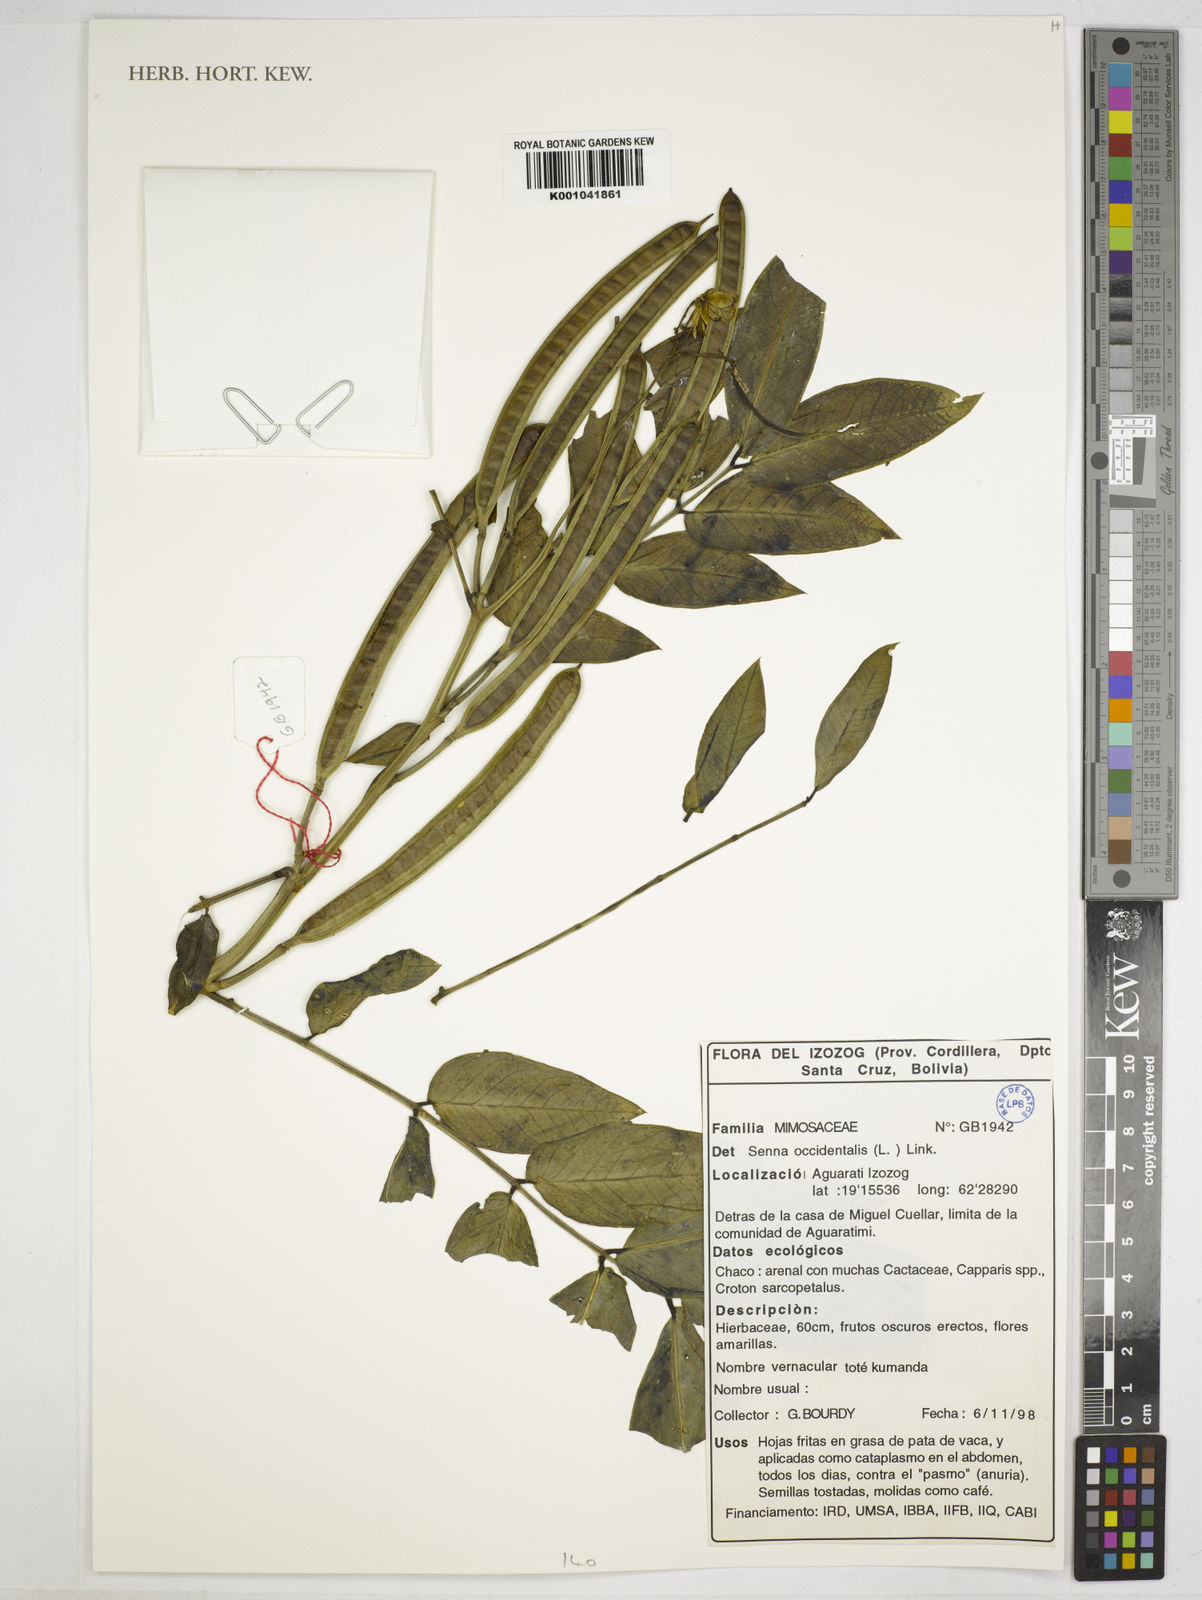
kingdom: Plantae
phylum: Tracheophyta
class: Magnoliopsida
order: Fabales
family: Fabaceae
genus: Senna
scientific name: Senna occidentalis
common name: Septicweed
